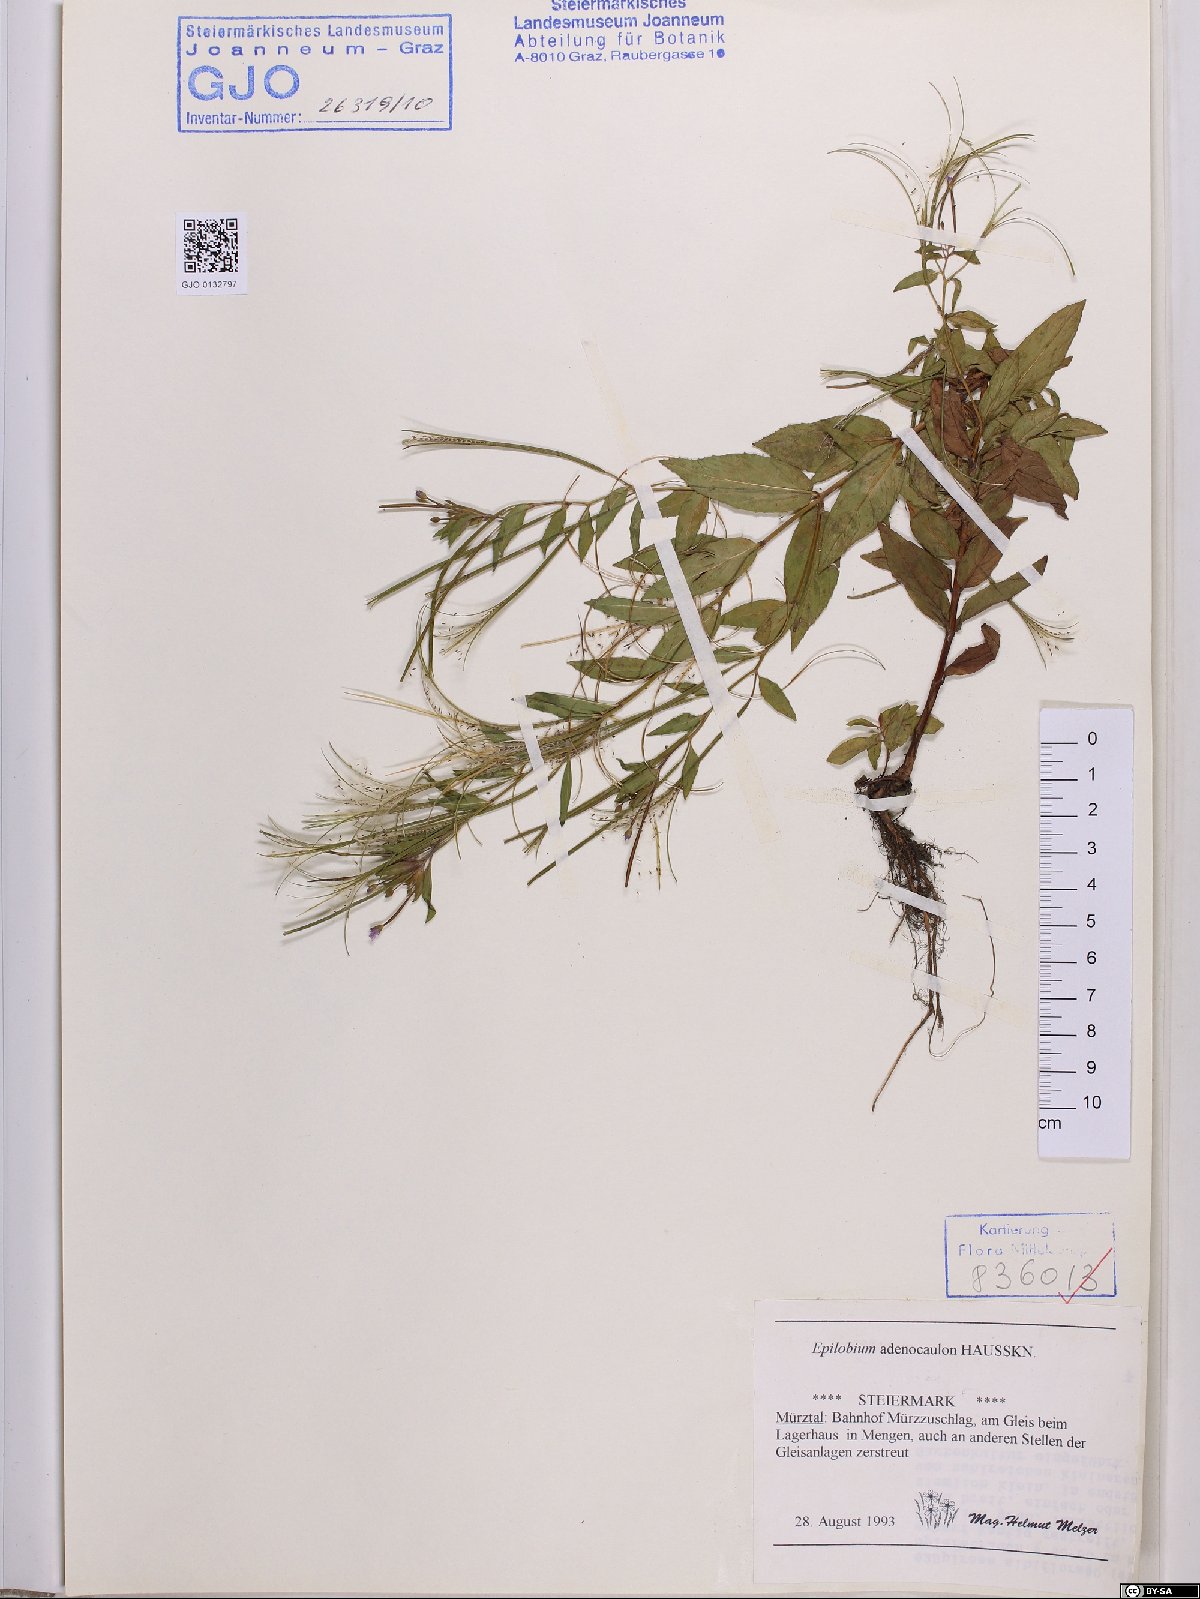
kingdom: Plantae
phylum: Tracheophyta
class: Magnoliopsida
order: Myrtales
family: Onagraceae
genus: Epilobium
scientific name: Epilobium ciliatum
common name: American willowherb
